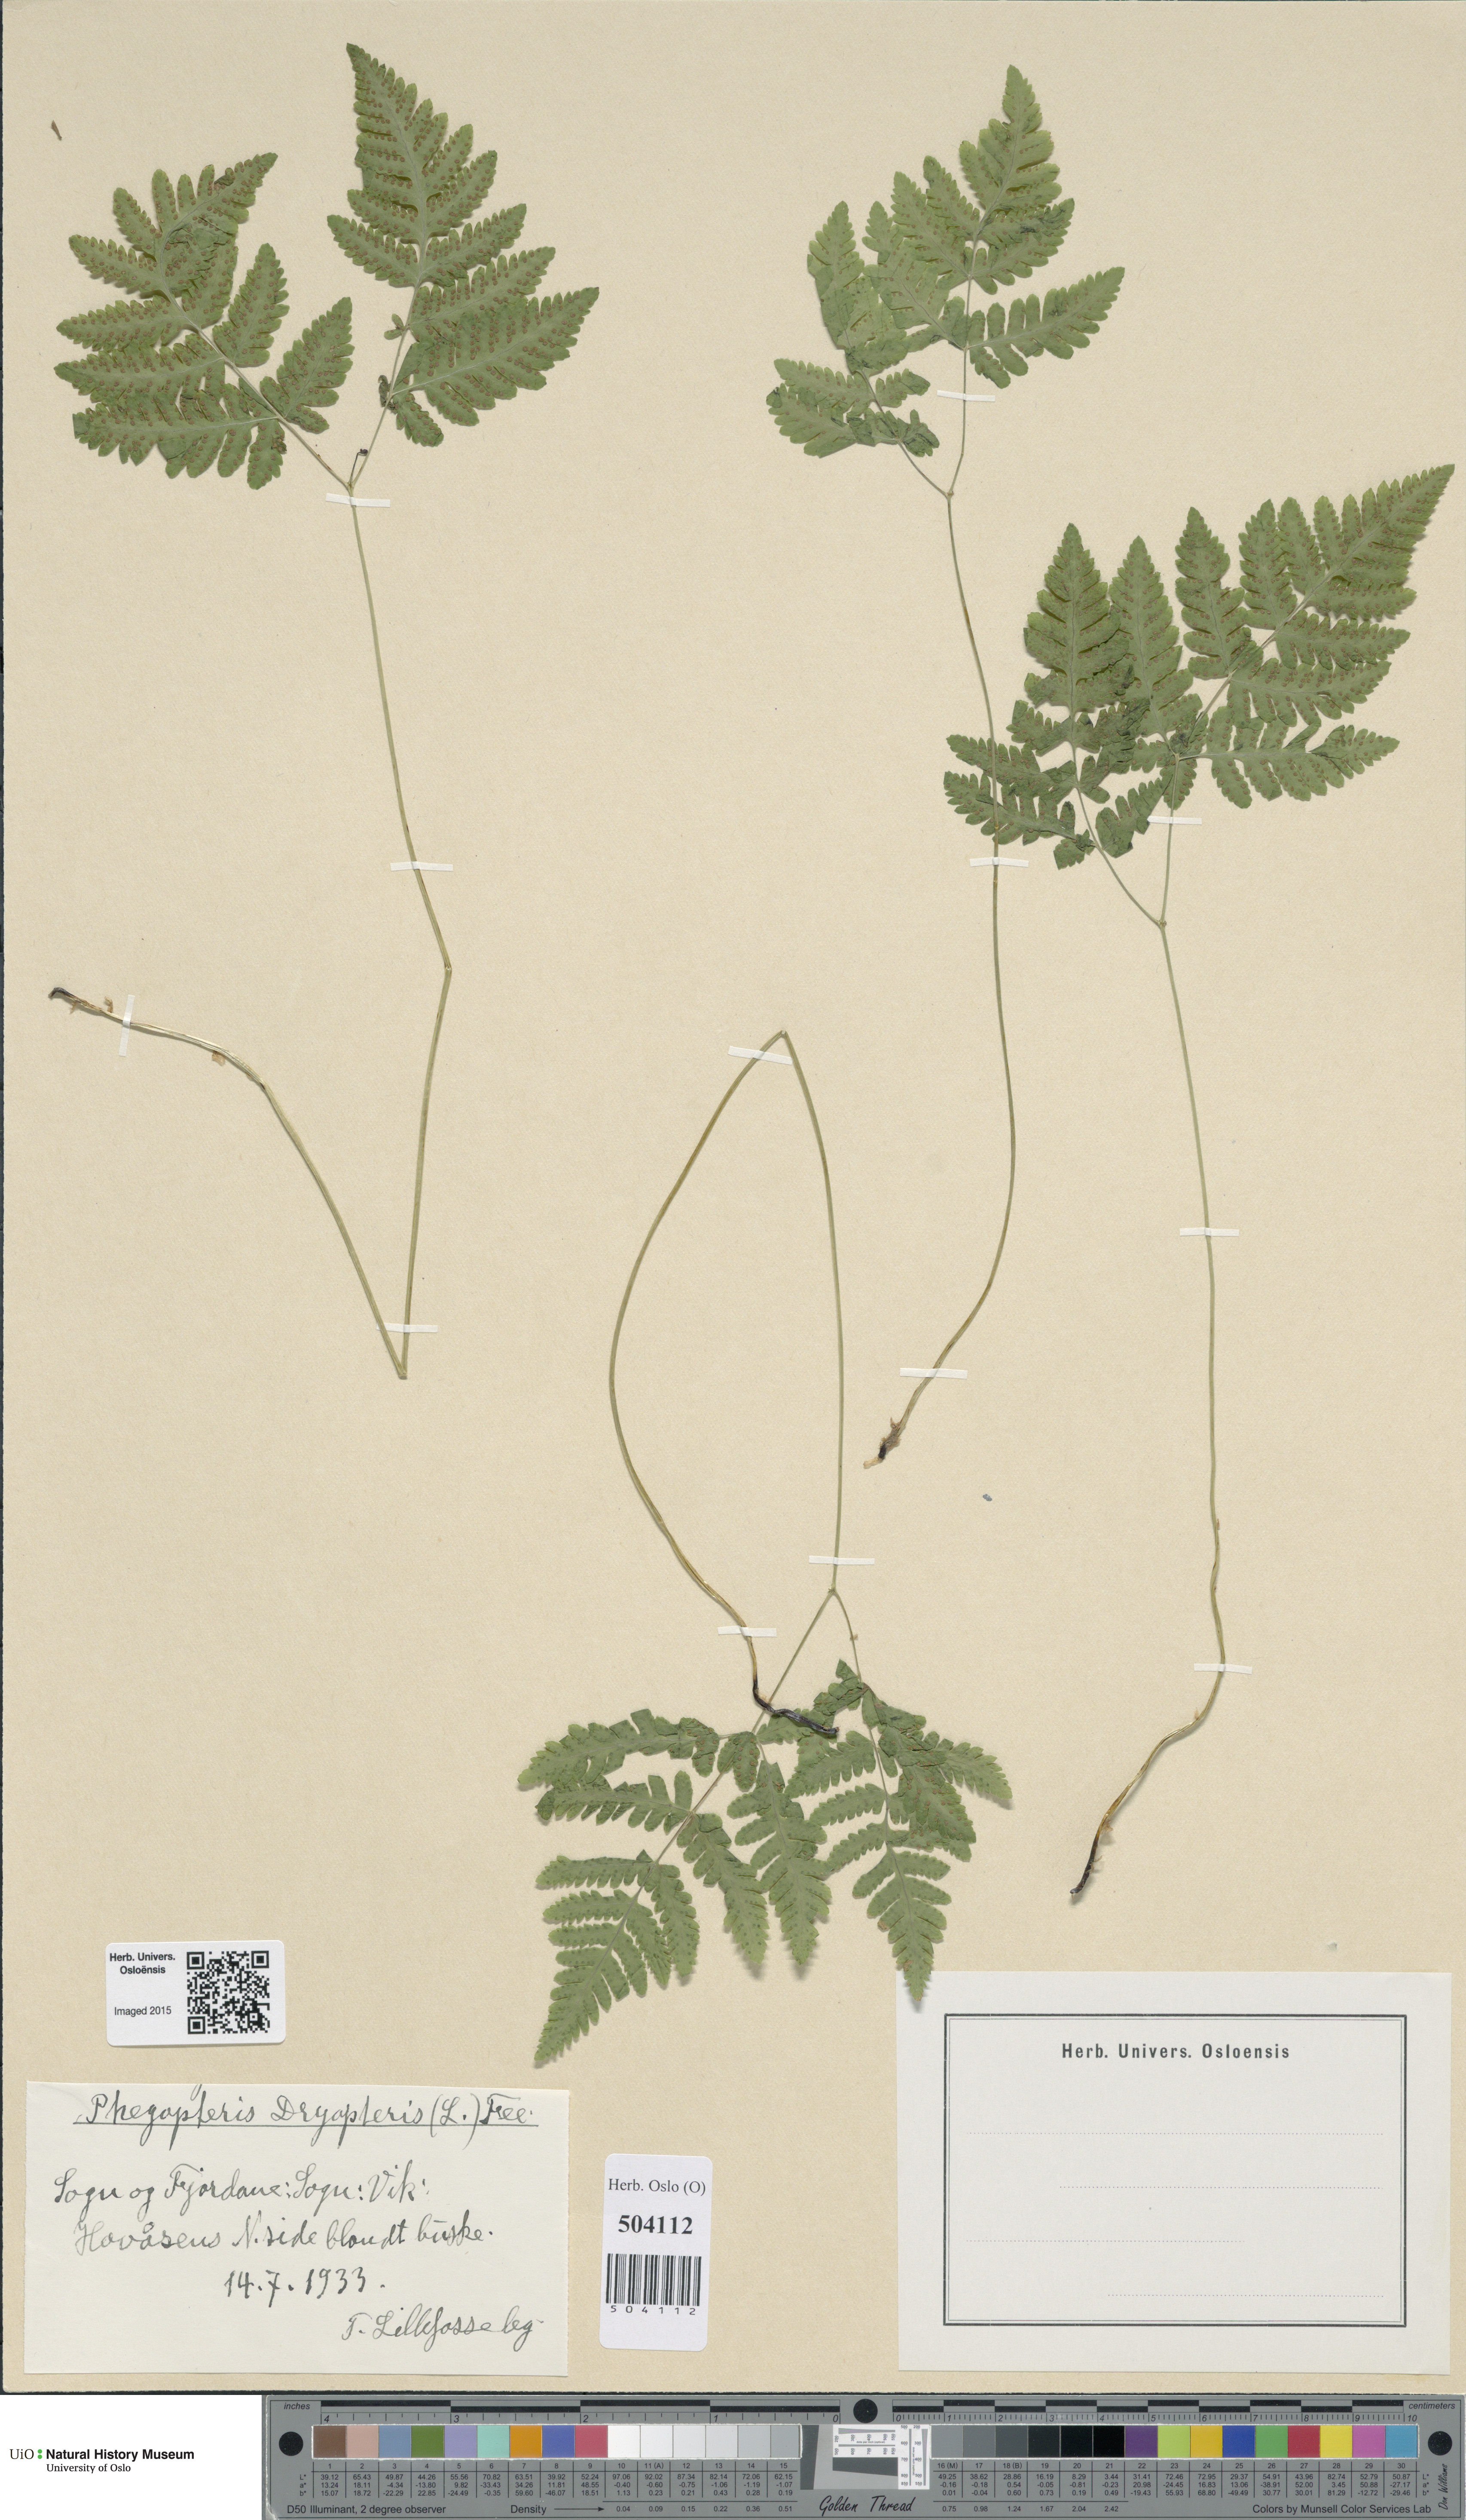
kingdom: Plantae
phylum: Tracheophyta
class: Polypodiopsida
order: Polypodiales
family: Cystopteridaceae
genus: Gymnocarpium
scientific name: Gymnocarpium dryopteris
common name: Oak fern
